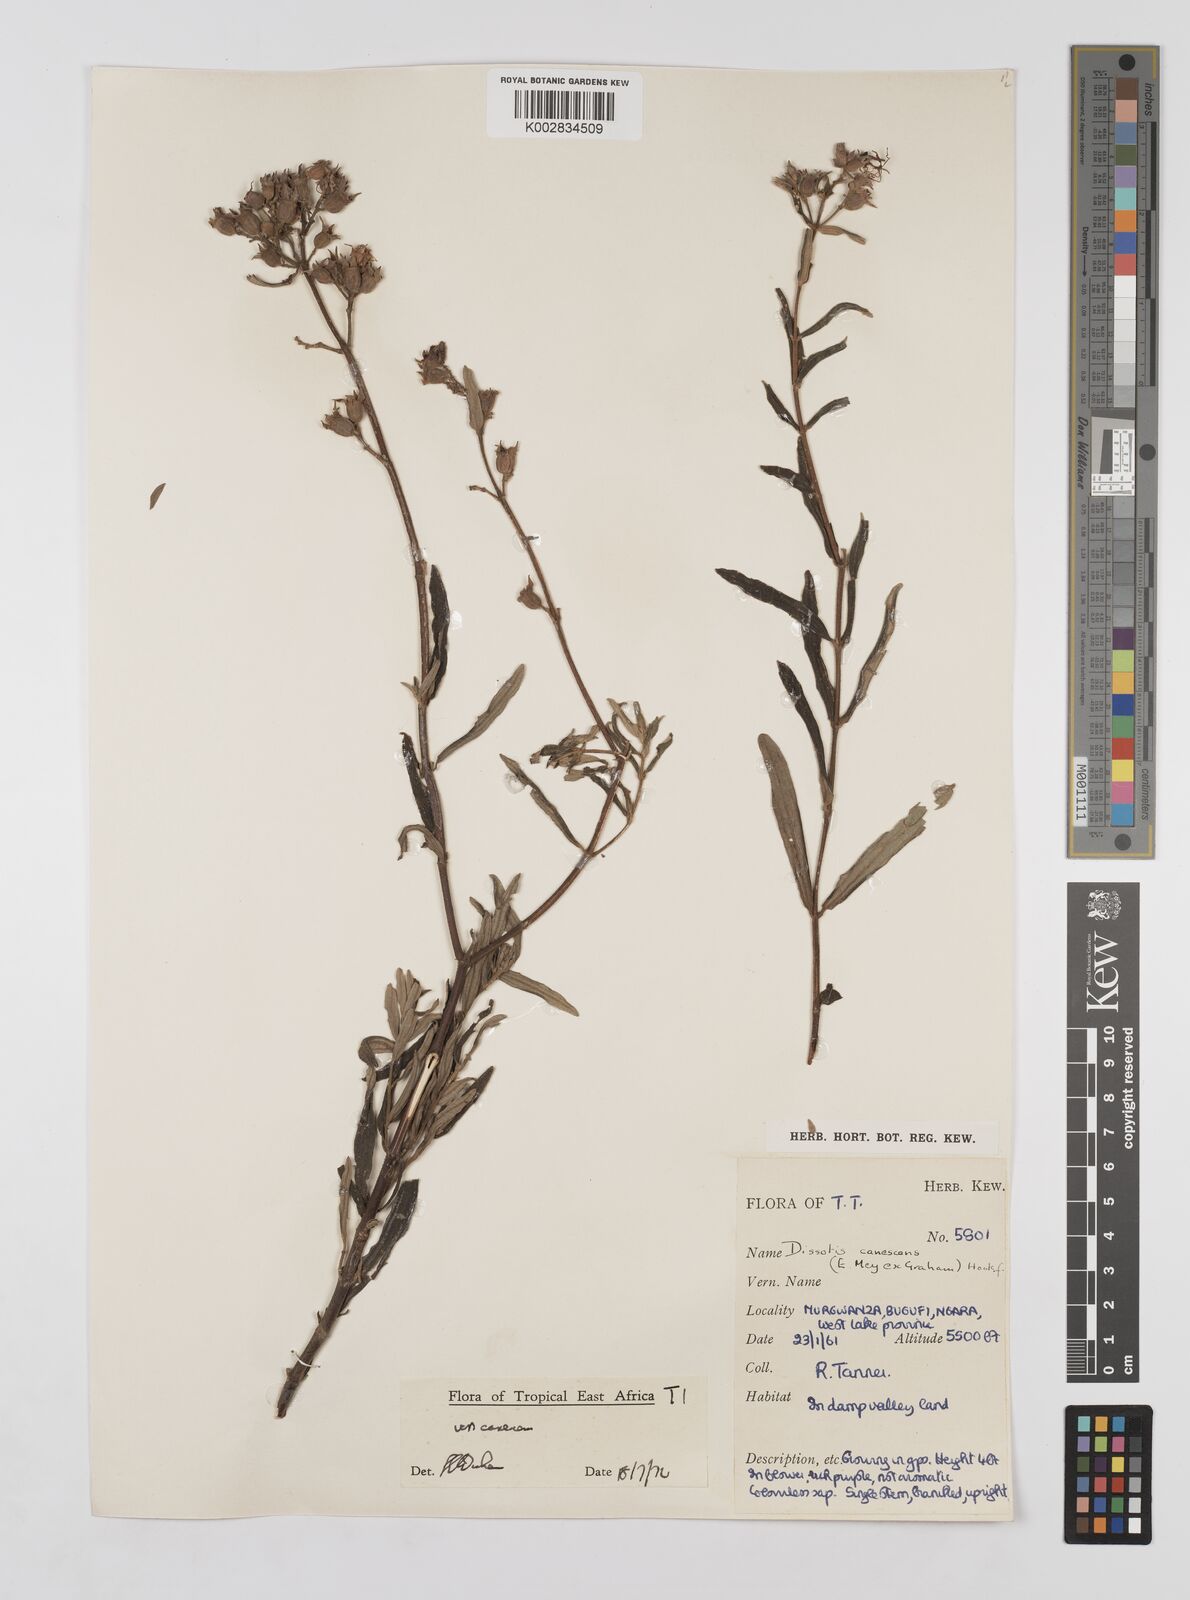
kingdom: Plantae
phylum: Tracheophyta
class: Magnoliopsida
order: Myrtales
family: Melastomataceae
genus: Argyrella
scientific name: Argyrella canescens
